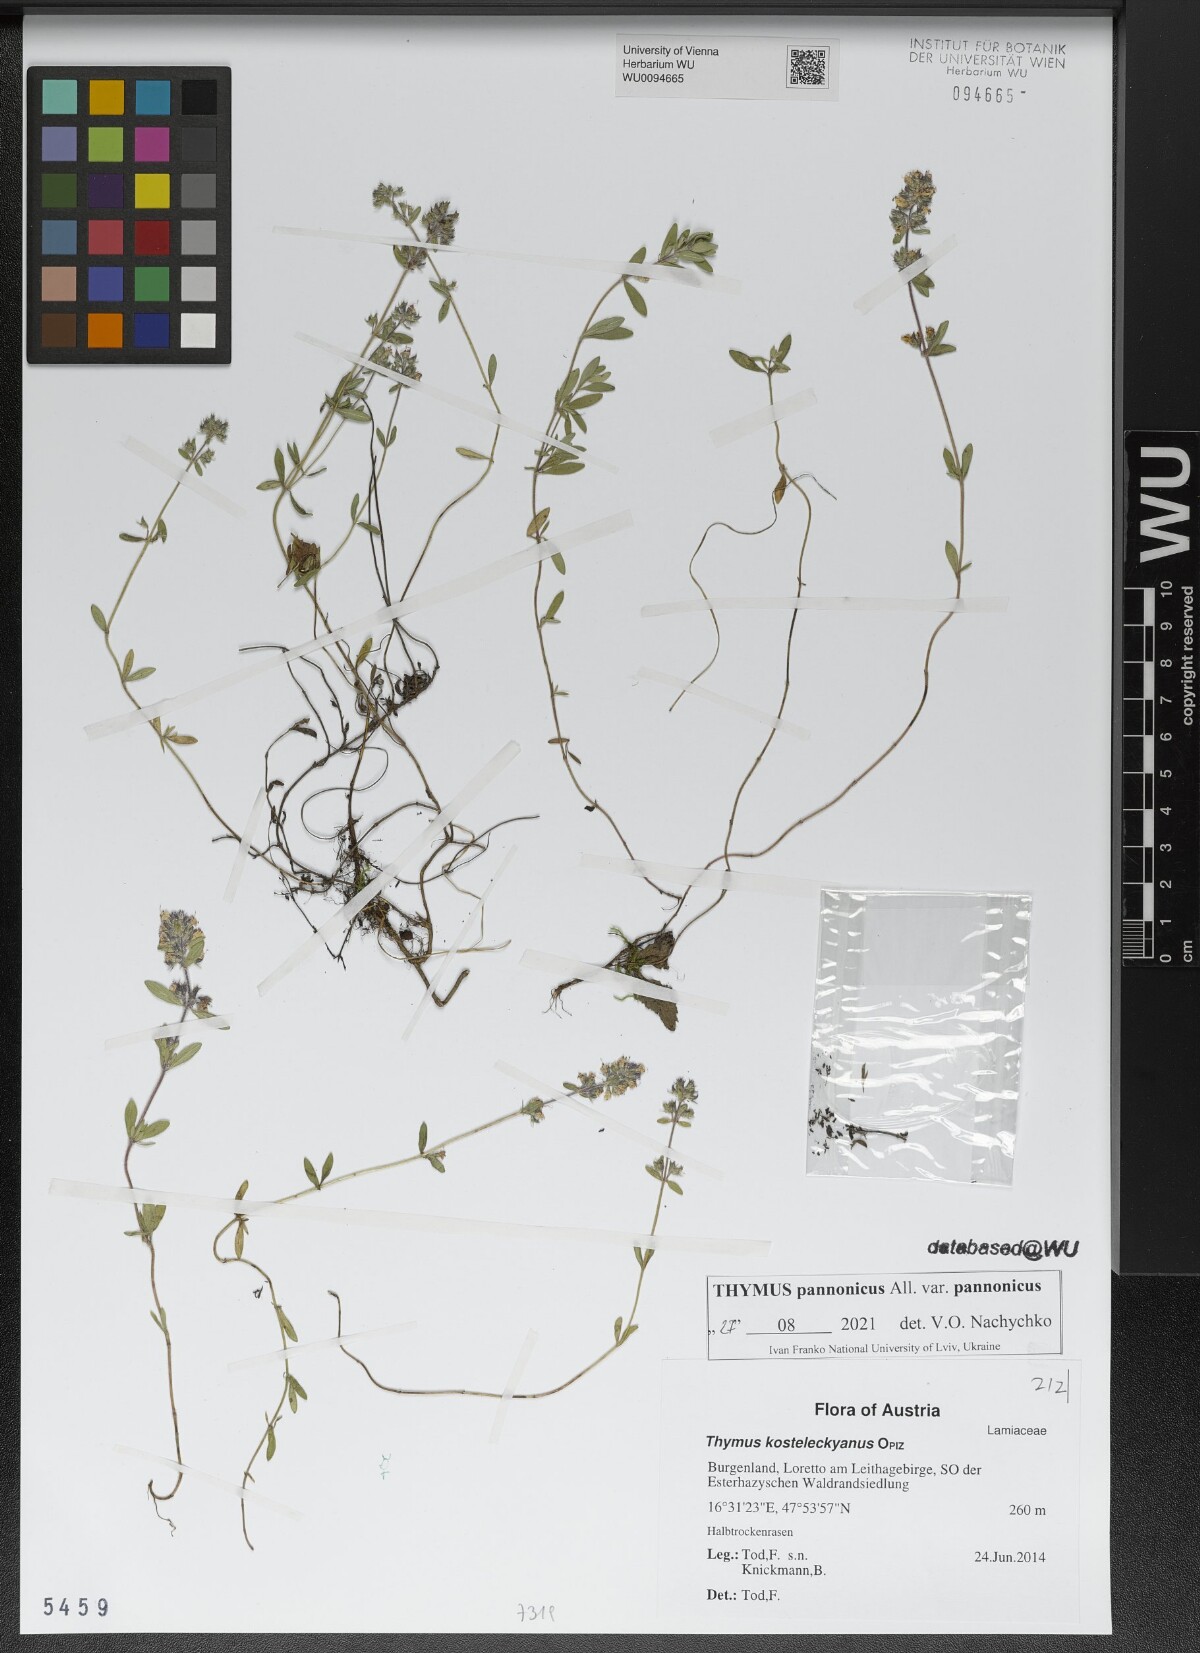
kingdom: Plantae
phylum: Tracheophyta
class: Magnoliopsida
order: Lamiales
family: Lamiaceae
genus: Thymus
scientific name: Thymus pannonicus
